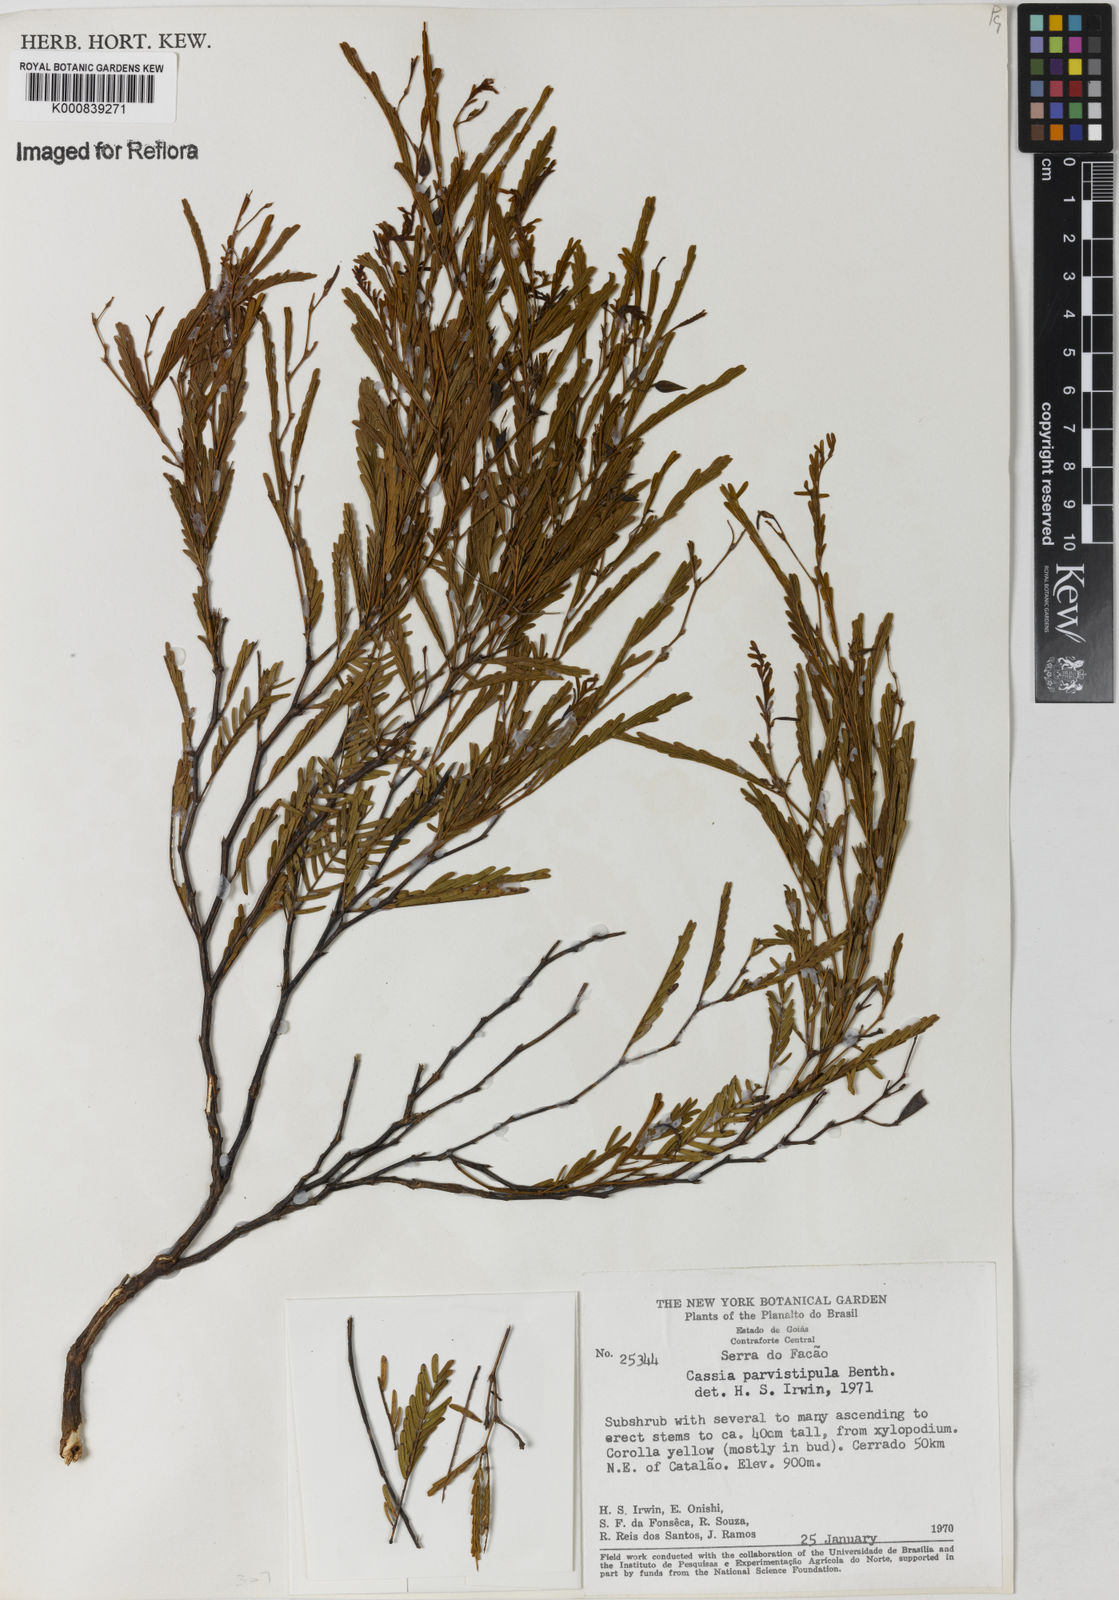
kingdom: Plantae
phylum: Tracheophyta
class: Magnoliopsida
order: Fabales
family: Fabaceae
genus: Chamaecrista
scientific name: Chamaecrista parvistipula
